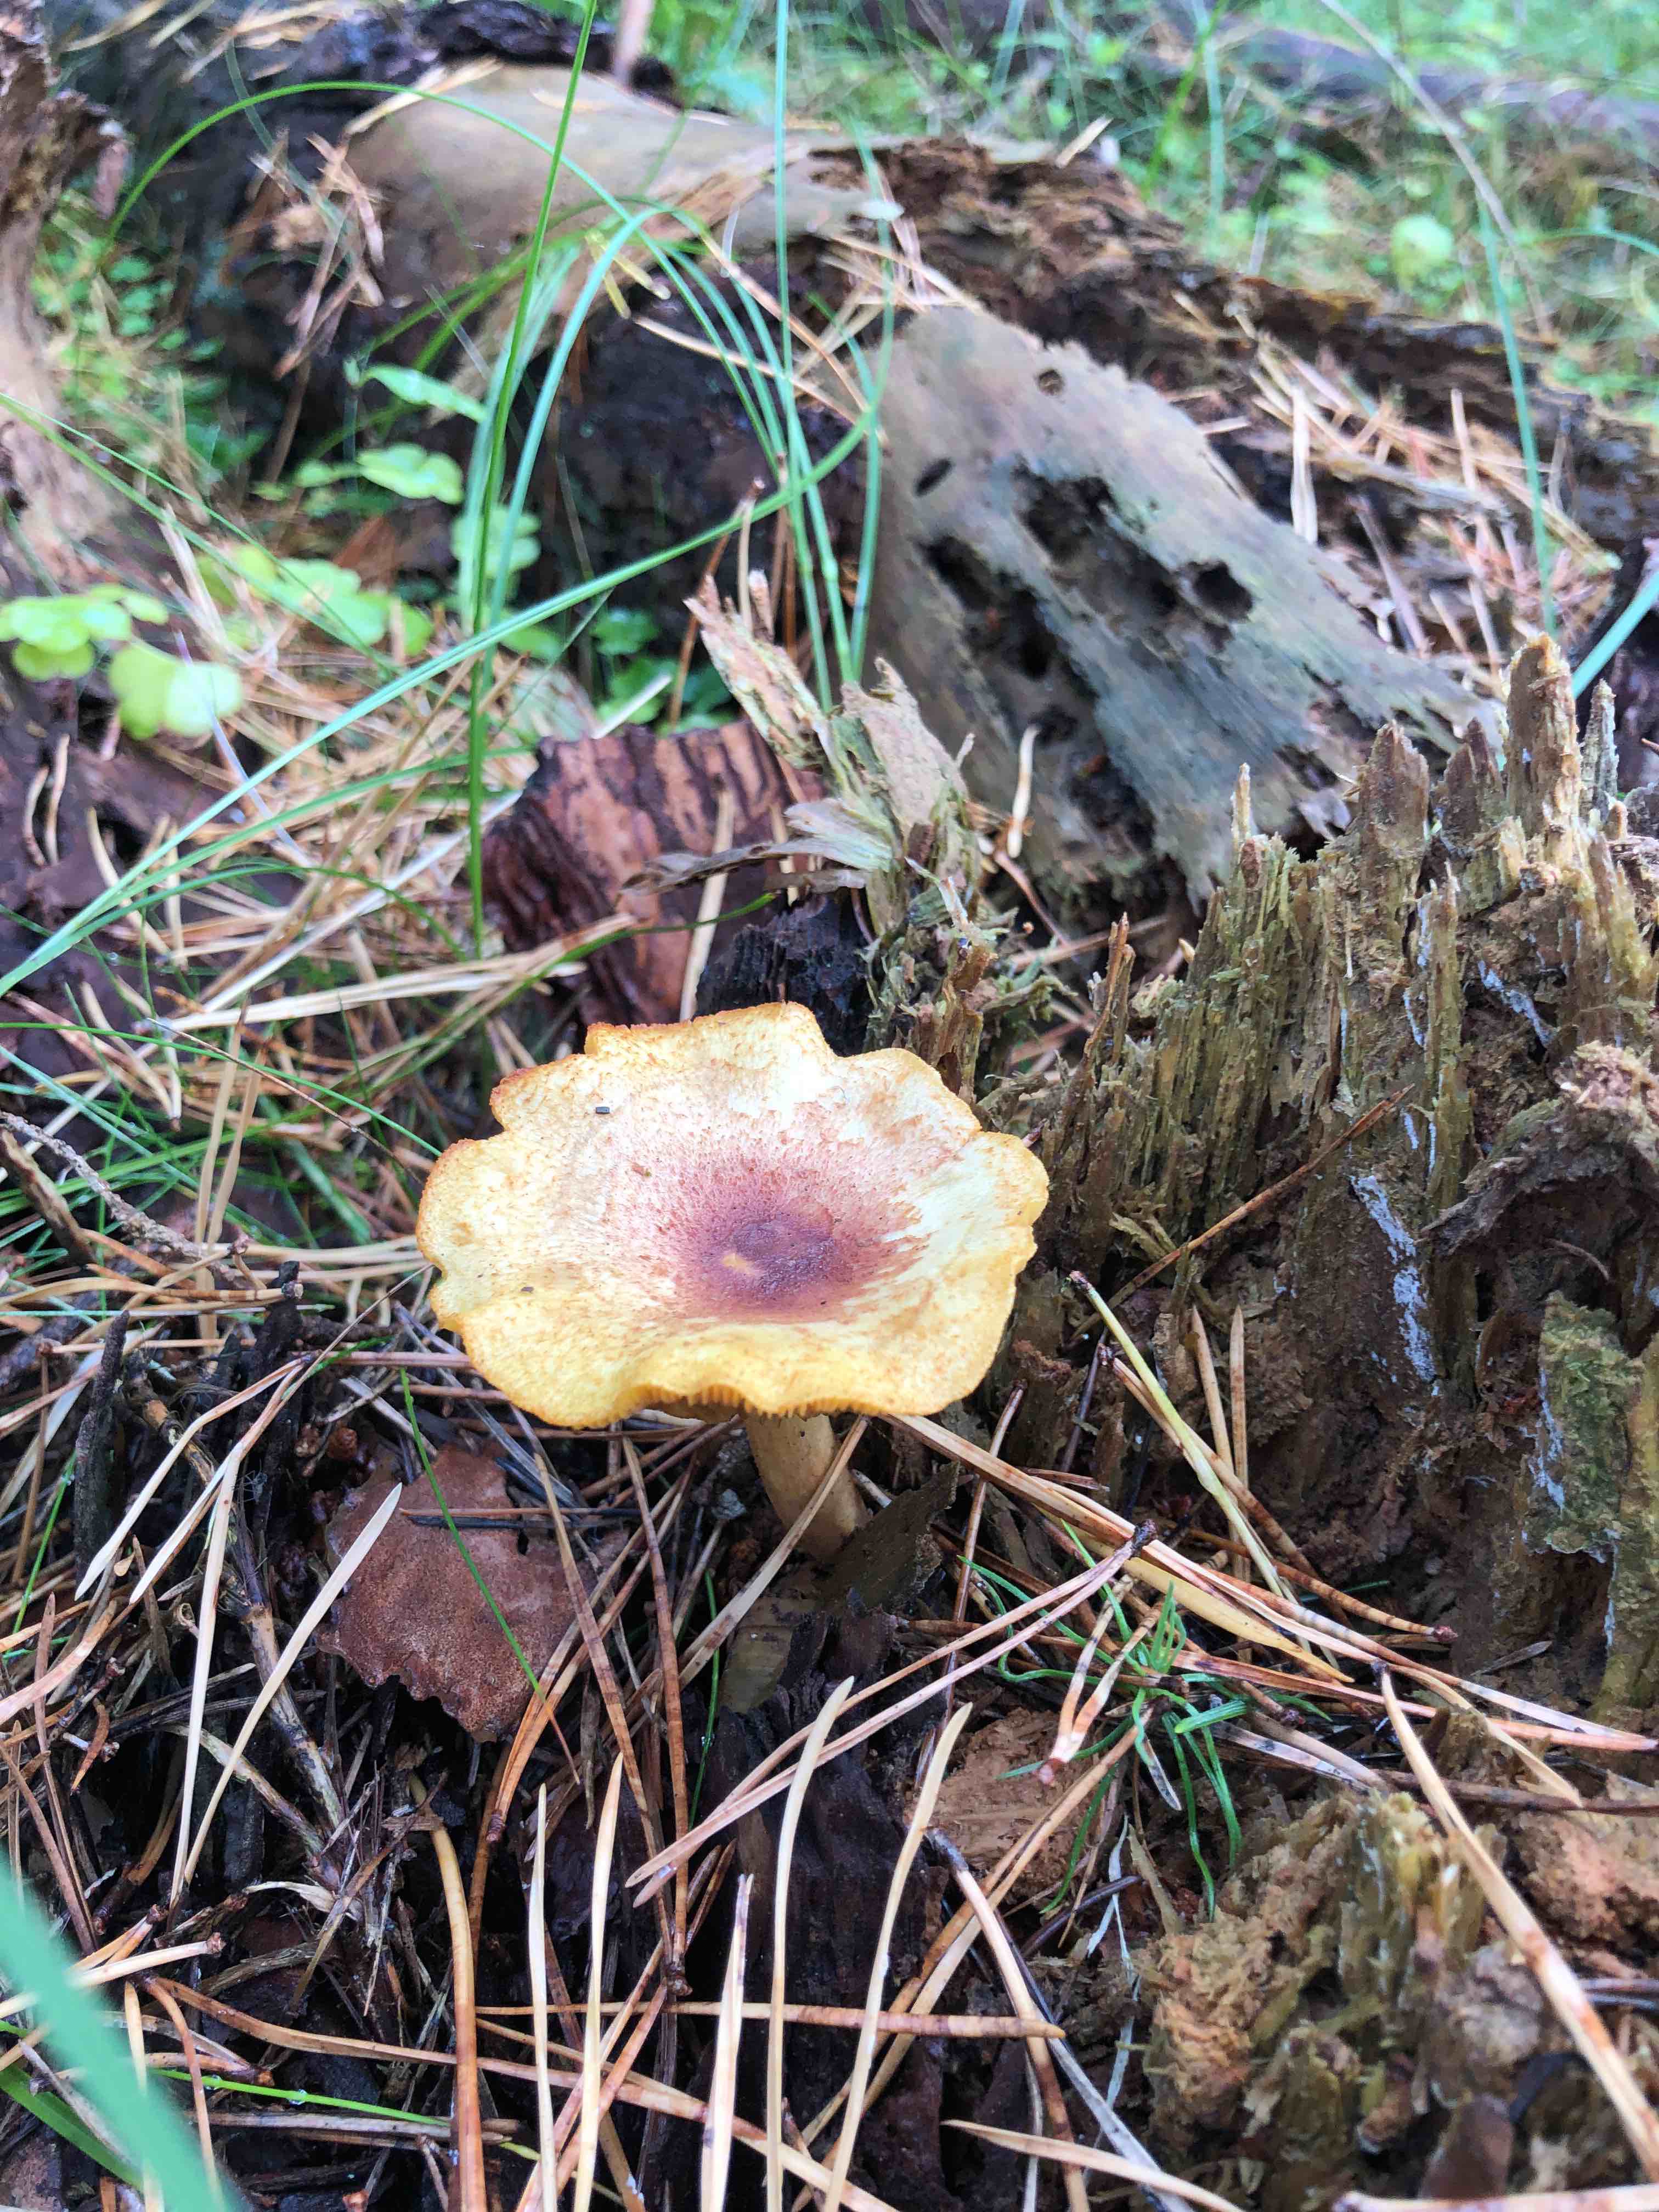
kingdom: Fungi
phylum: Basidiomycota
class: Agaricomycetes
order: Agaricales
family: Tricholomataceae
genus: Tricholomopsis
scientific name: Tricholomopsis rutilans
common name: purpur-væbnerhat
